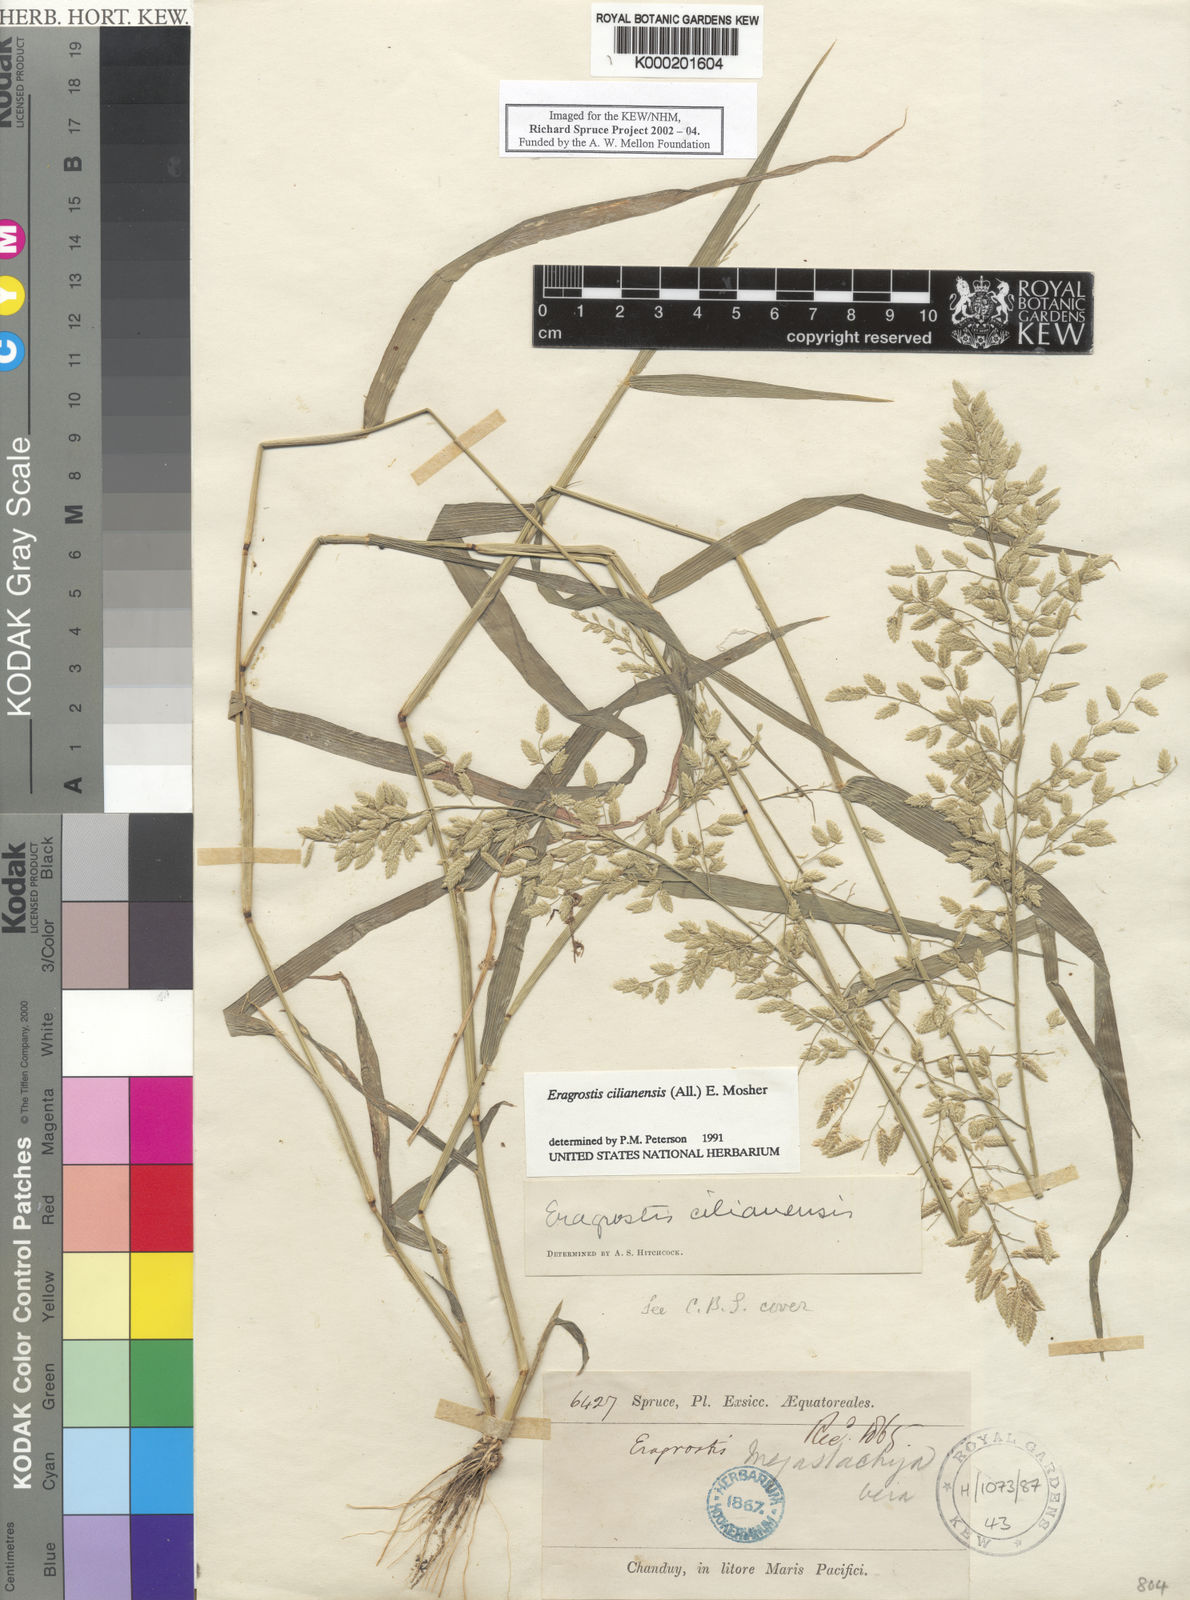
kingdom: Plantae
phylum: Tracheophyta
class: Liliopsida
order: Poales
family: Poaceae
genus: Eragrostis
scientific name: Eragrostis
